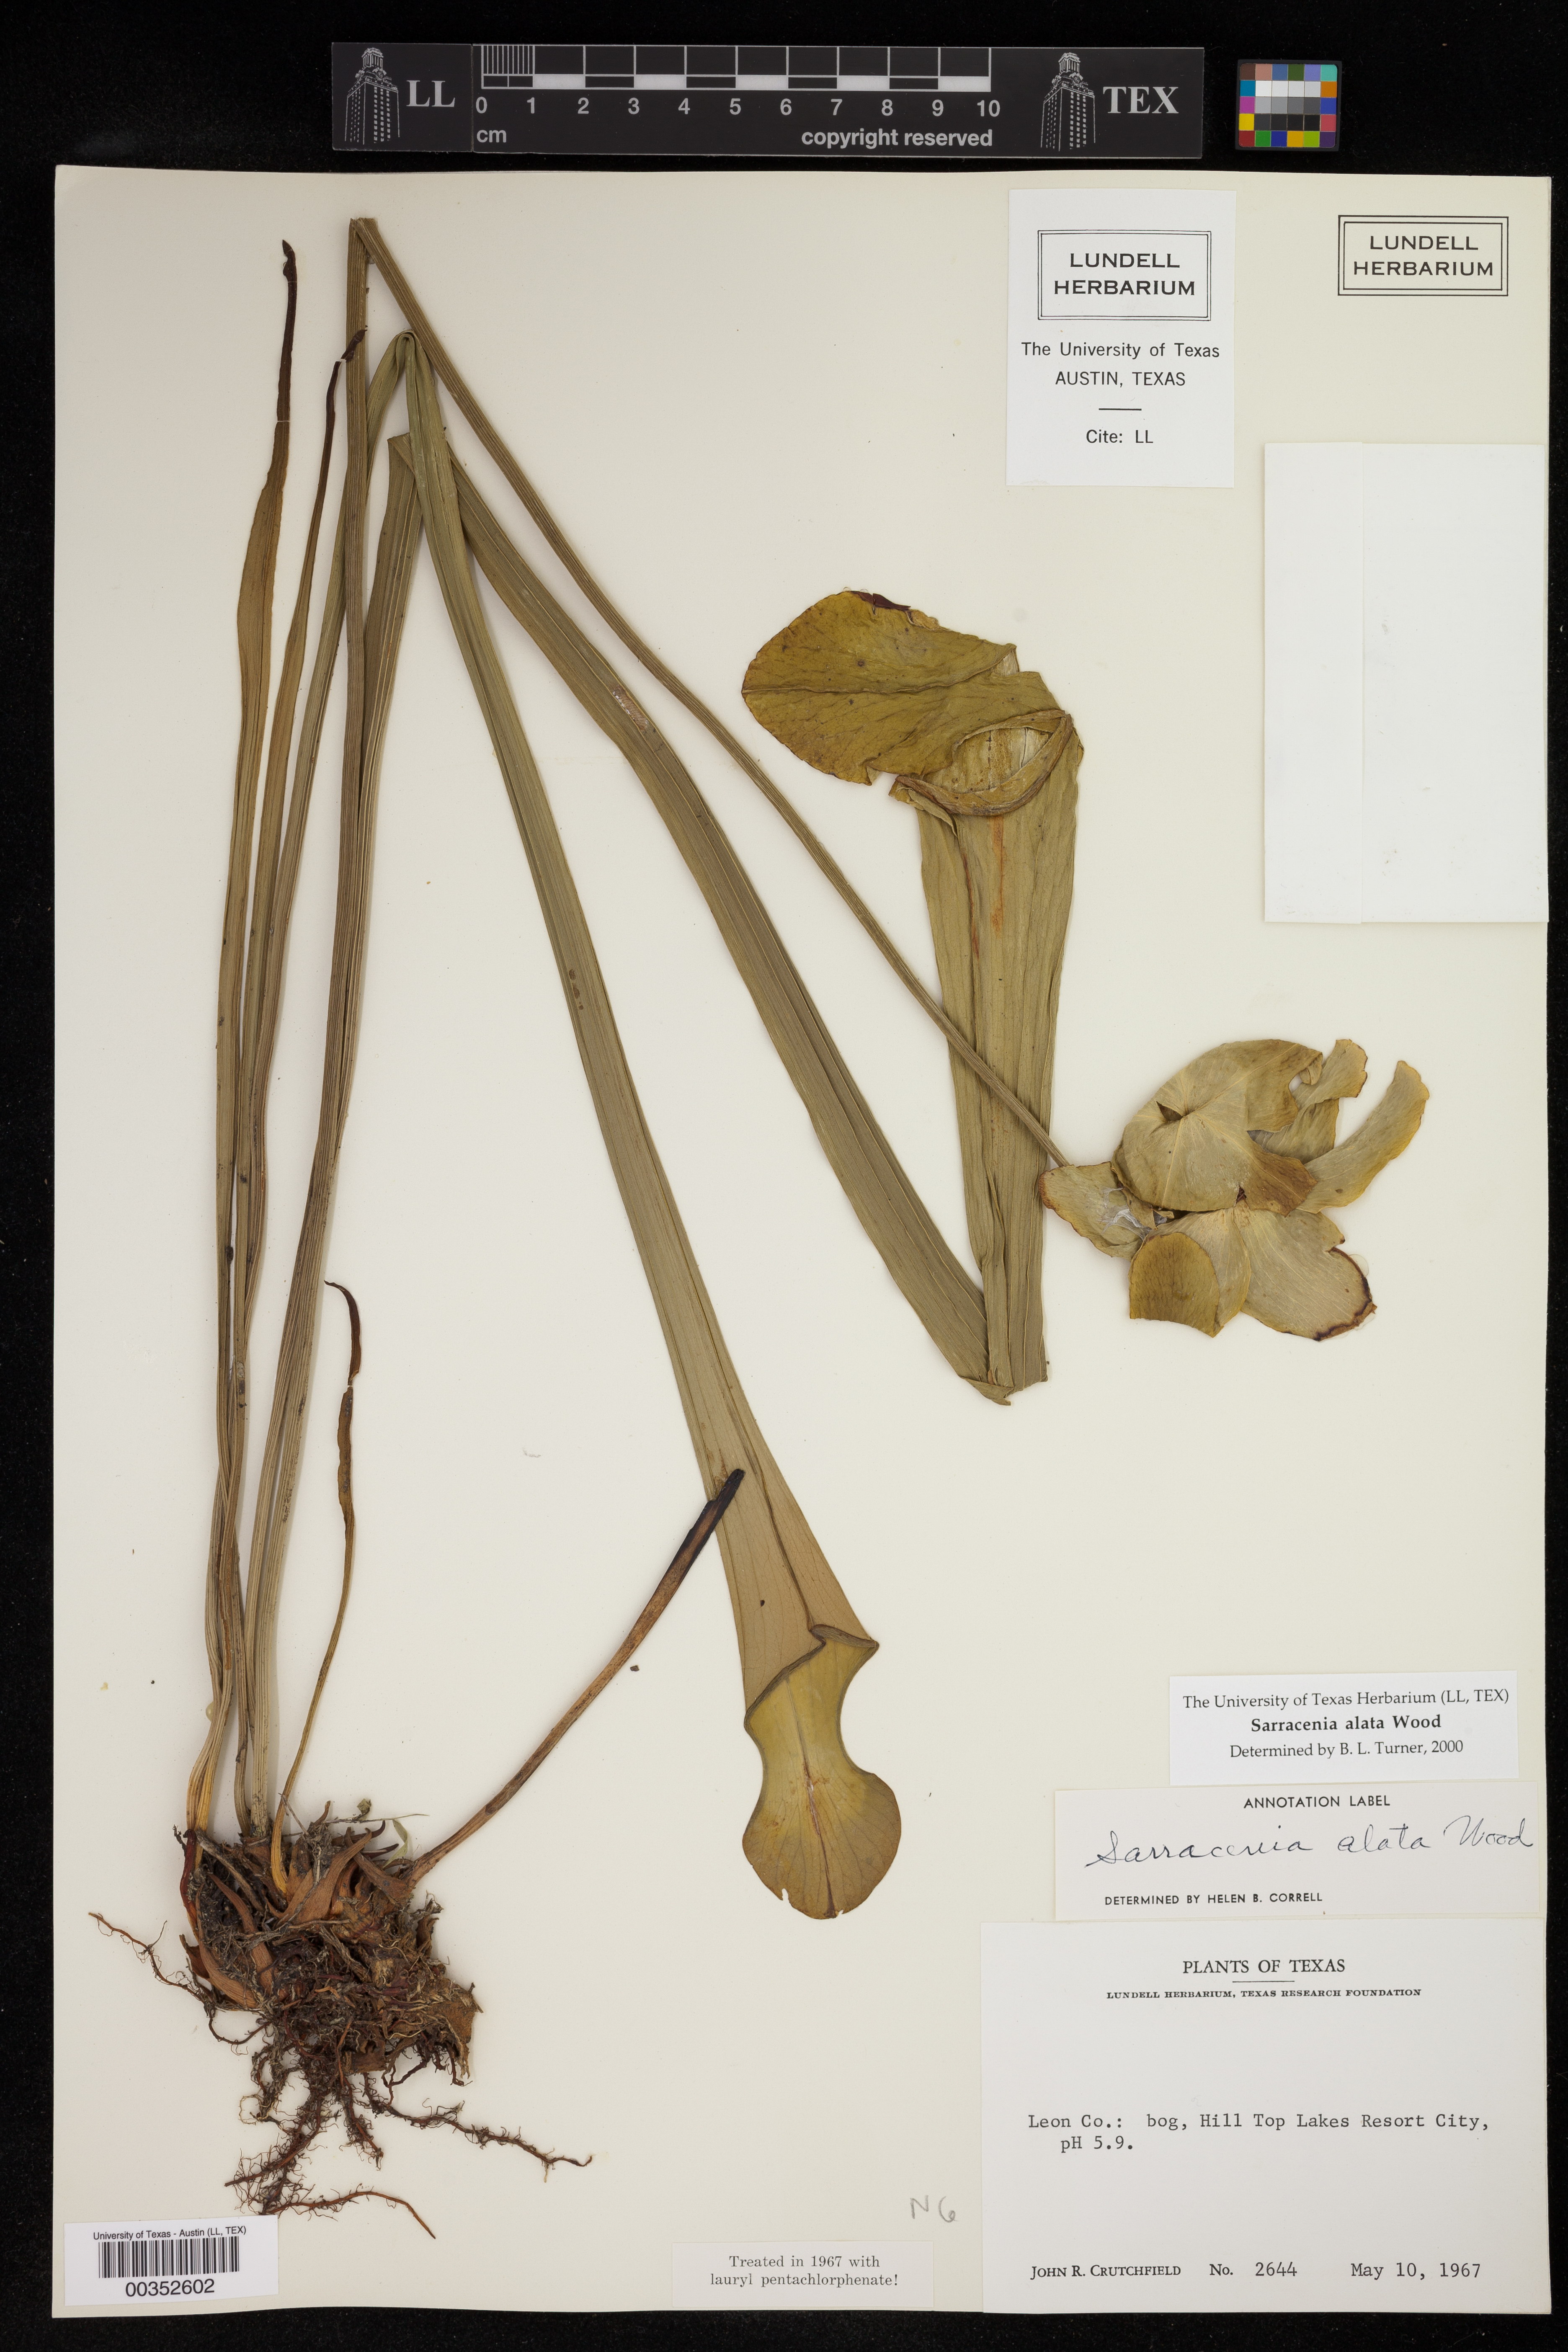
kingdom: Plantae
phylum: Tracheophyta
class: Magnoliopsida
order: Ericales
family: Sarraceniaceae
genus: Sarracenia
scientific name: Sarracenia alata
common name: Yellow trumpets
